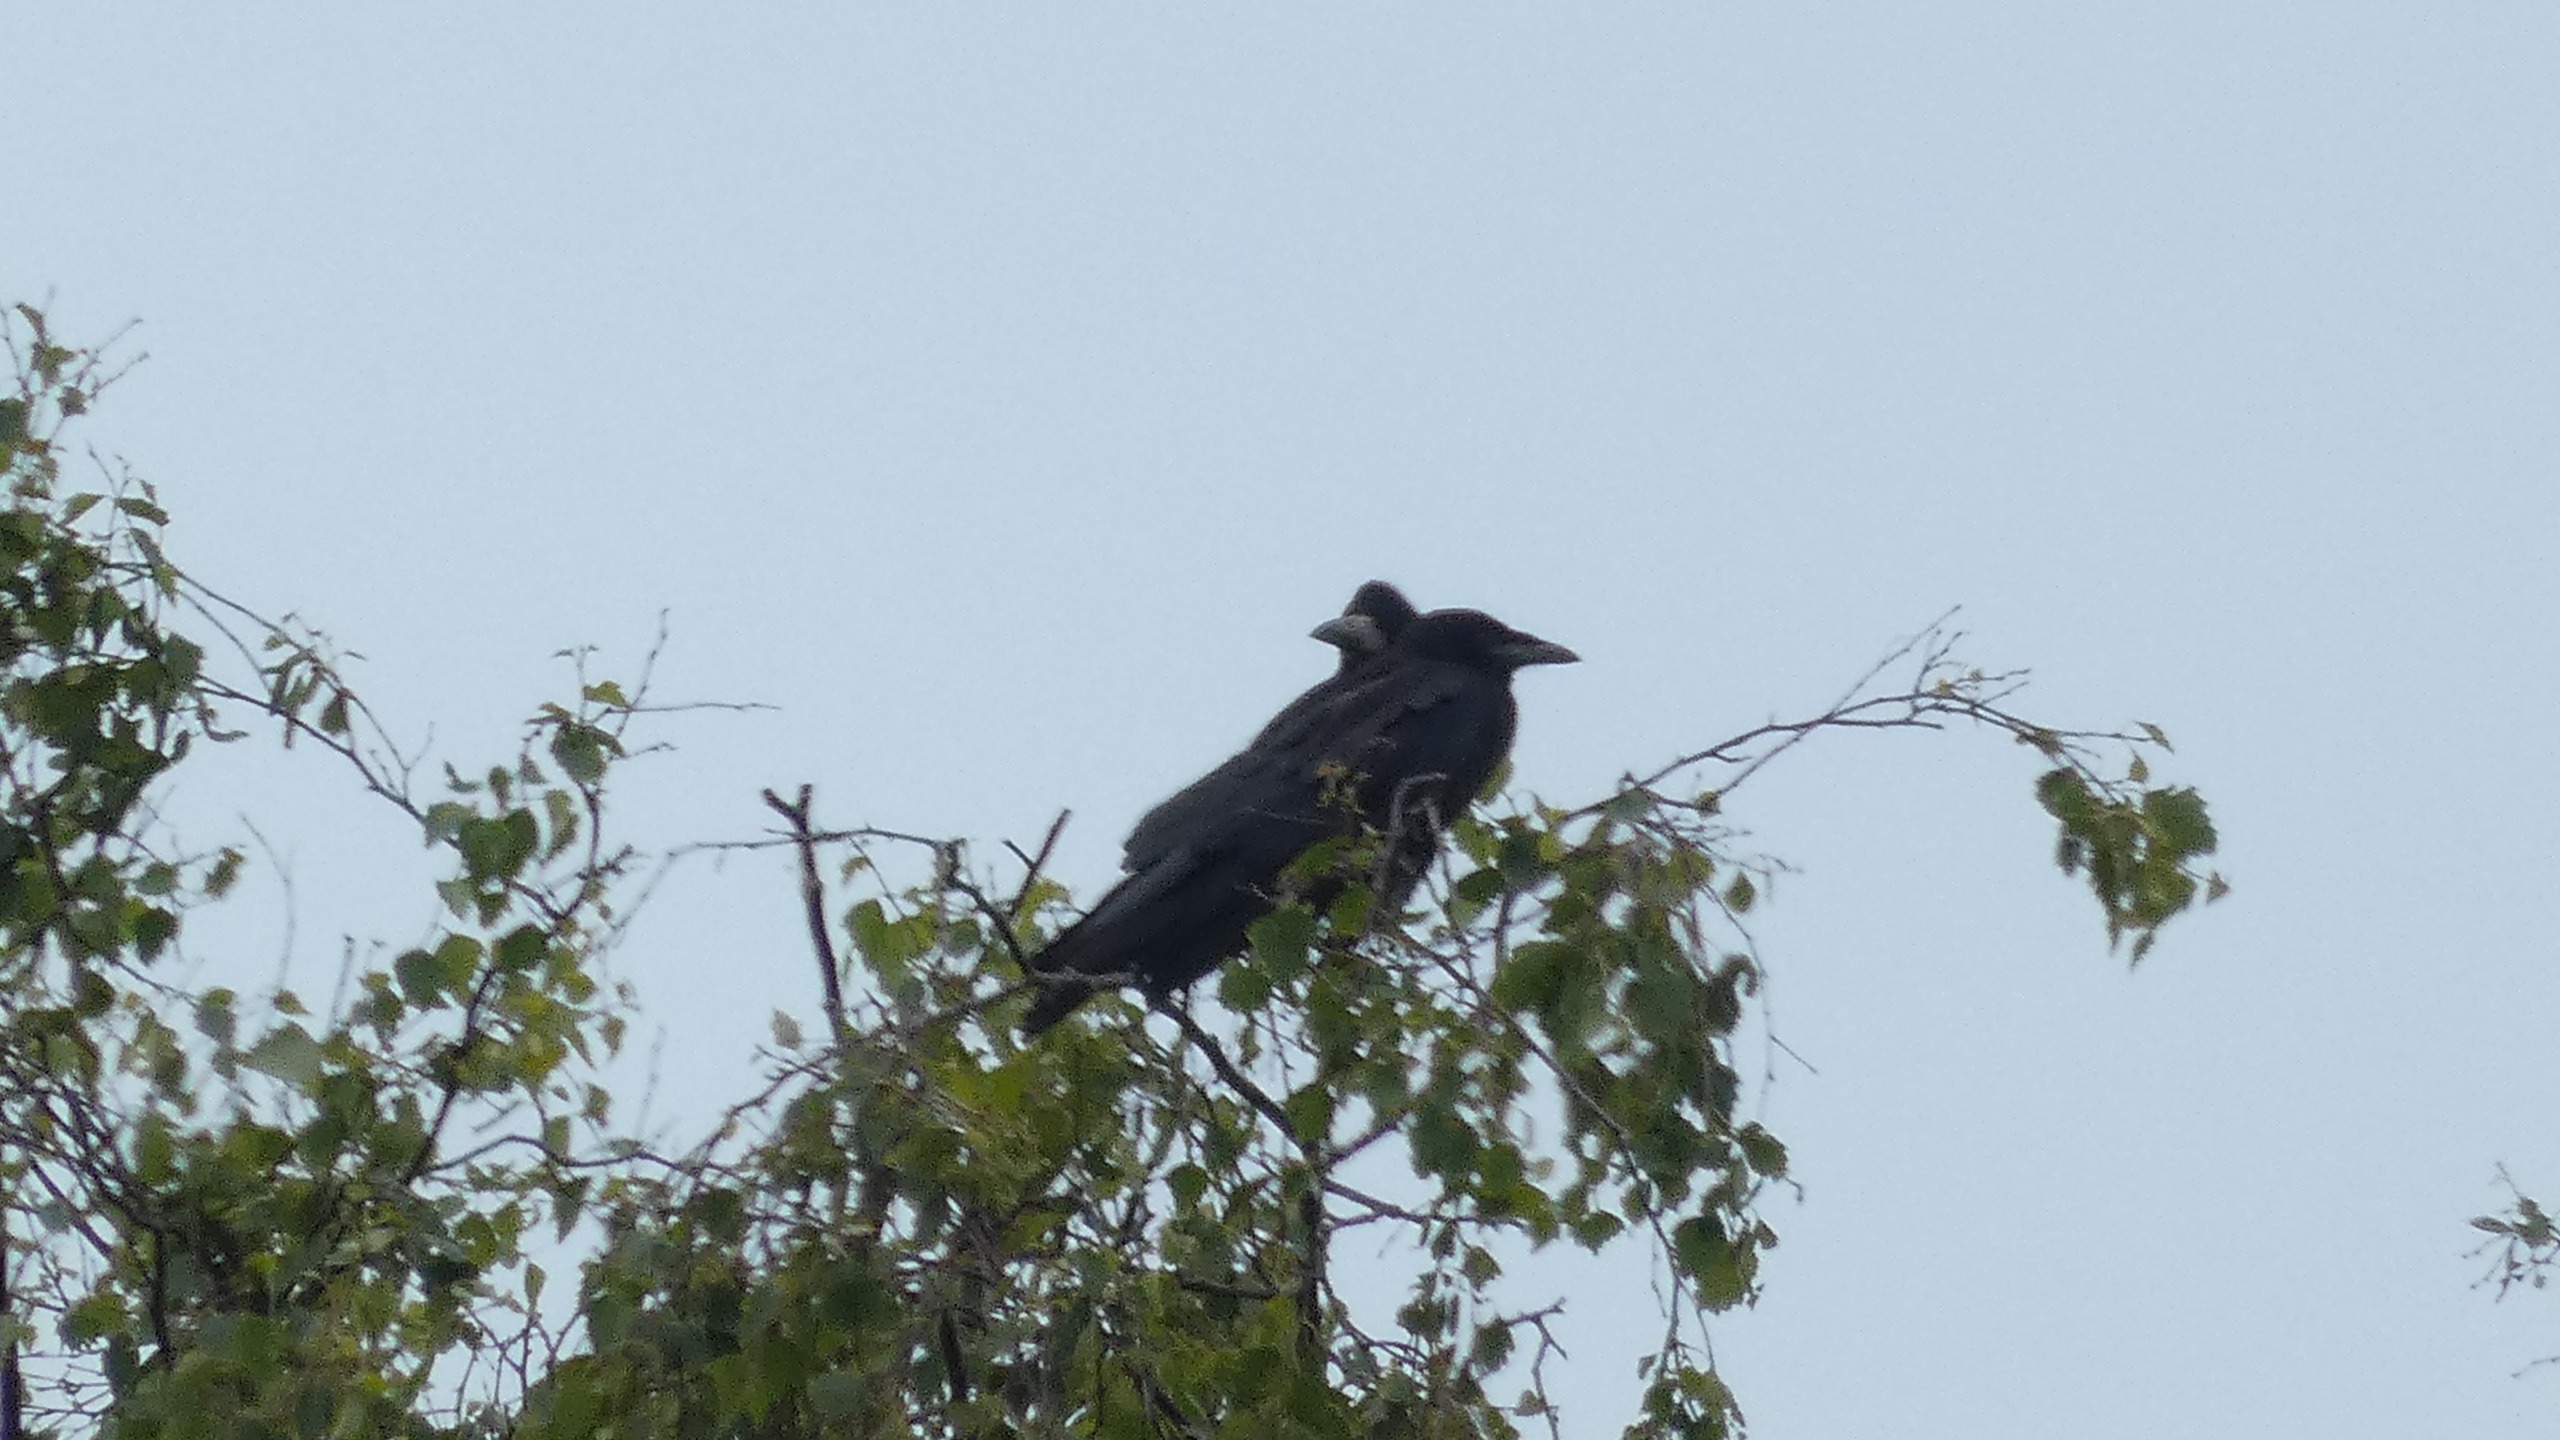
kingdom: Animalia
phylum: Chordata
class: Aves
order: Passeriformes
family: Corvidae
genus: Corvus
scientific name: Corvus frugilegus
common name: Råge
